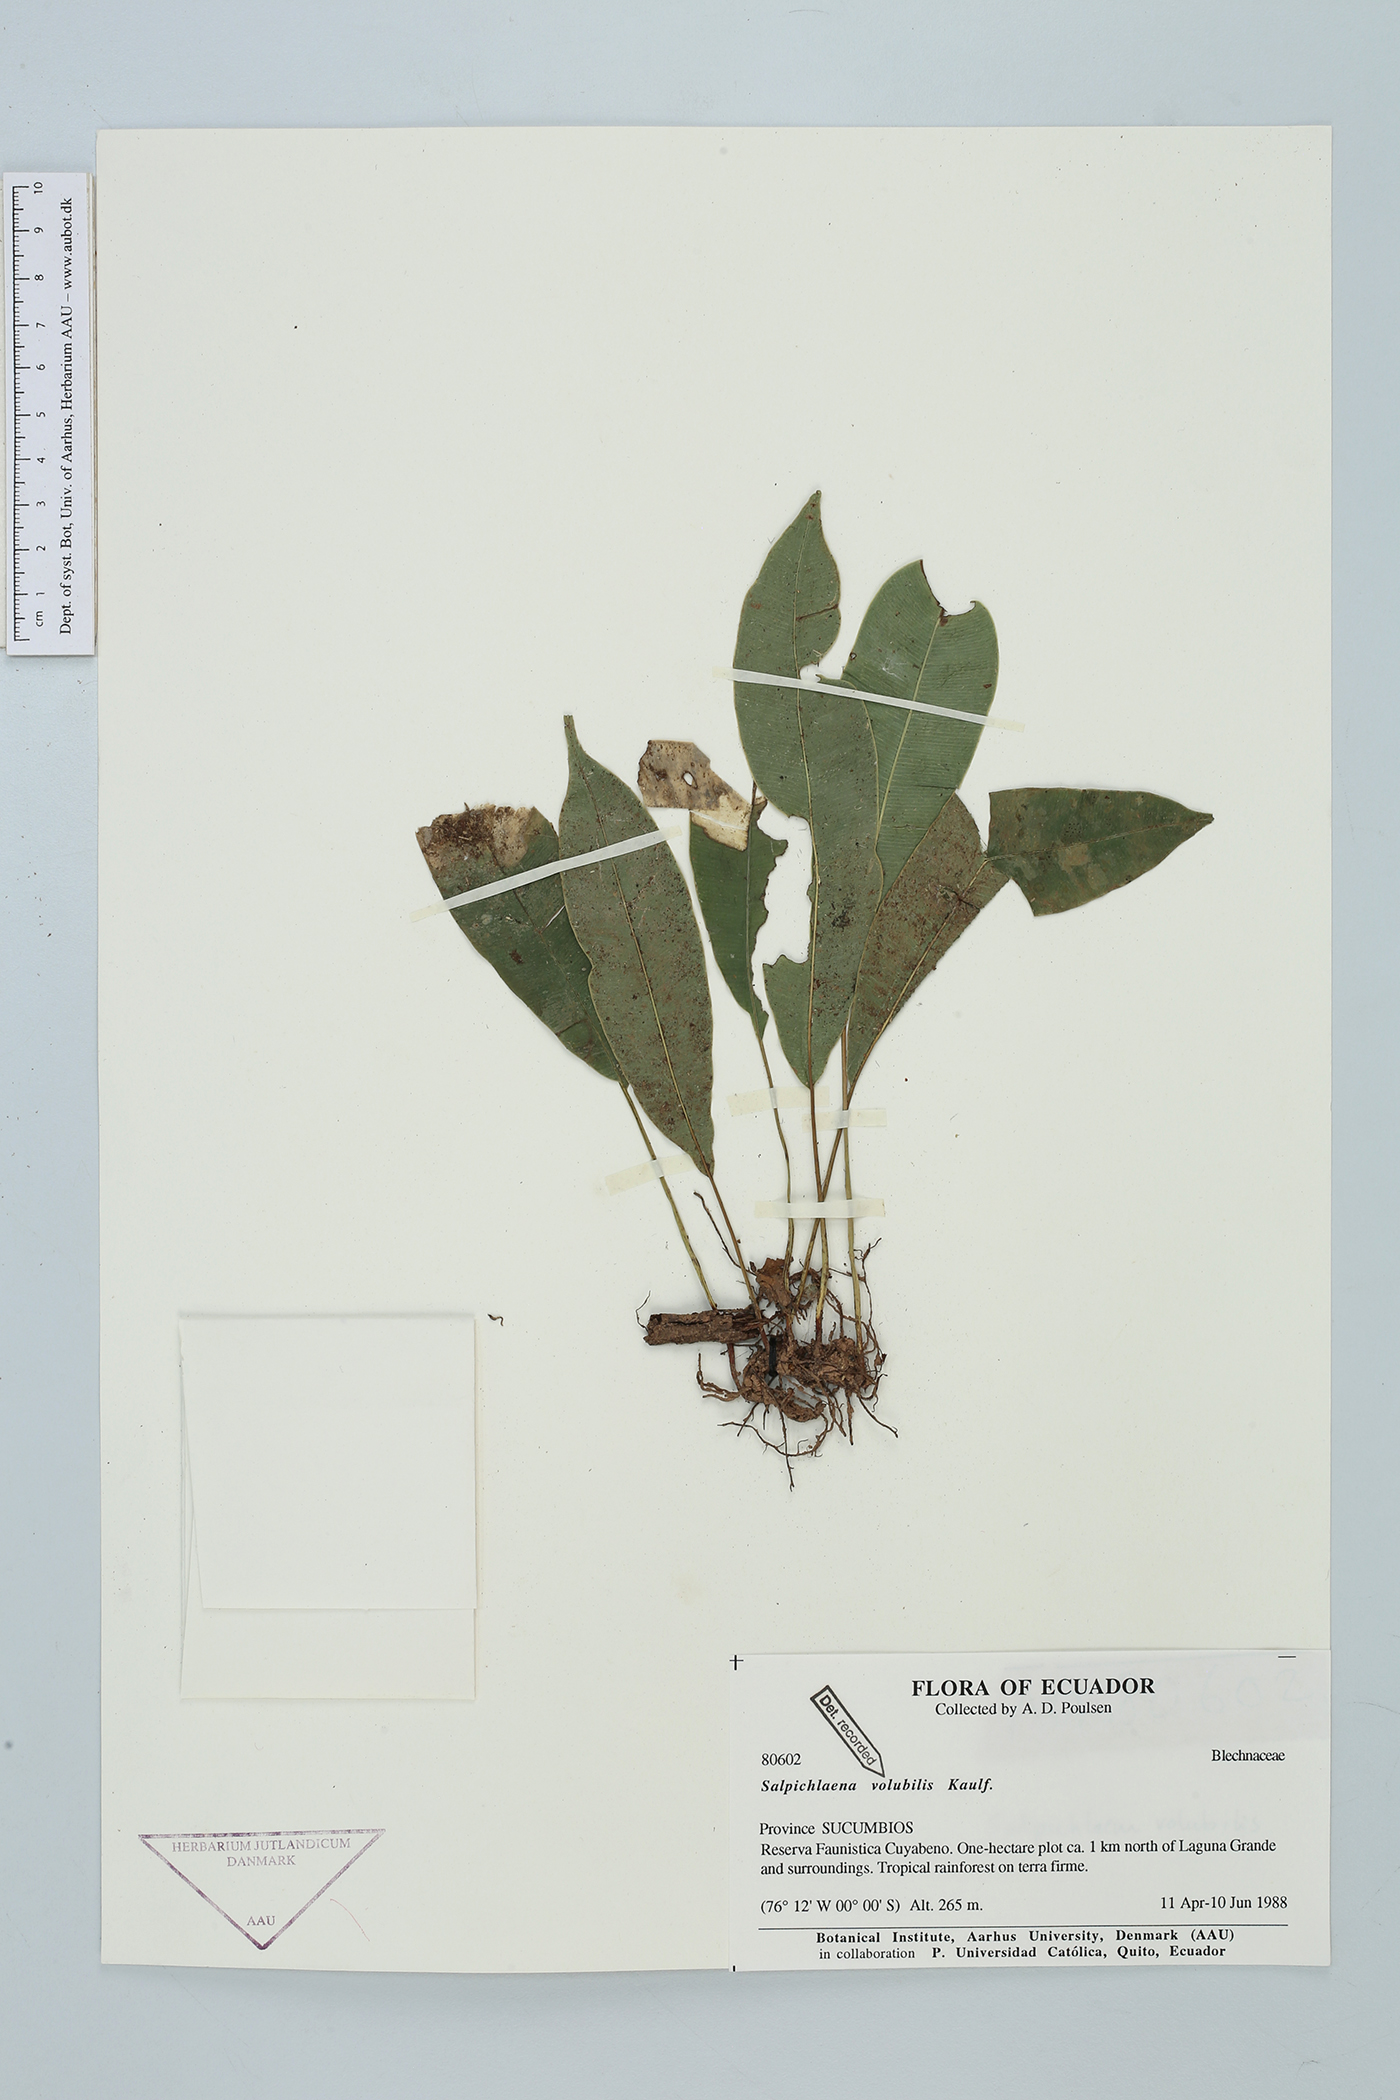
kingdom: Plantae
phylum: Tracheophyta
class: Polypodiopsida
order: Polypodiales
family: Blechnaceae
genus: Salpichlaena
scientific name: Salpichlaena volubilis
